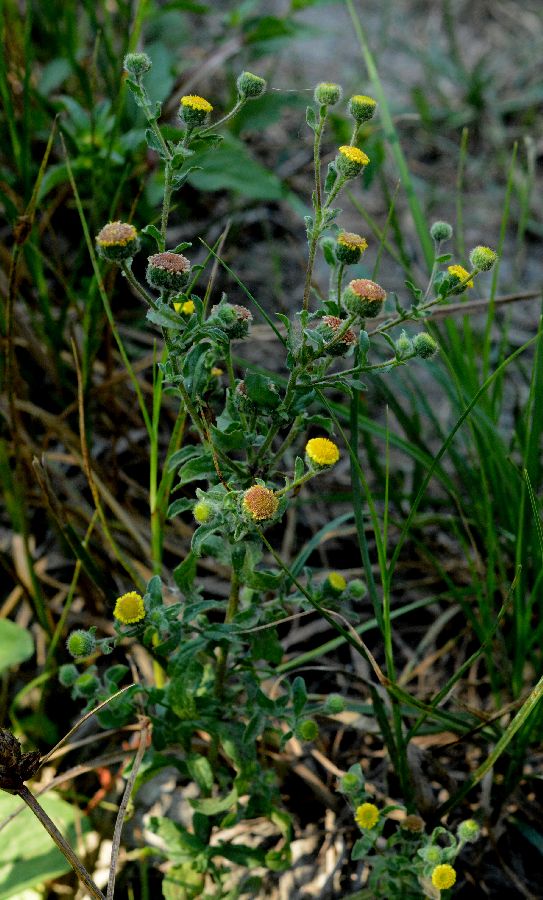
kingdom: Plantae
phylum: Tracheophyta
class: Magnoliopsida
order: Asterales
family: Asteraceae
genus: Pulicaria
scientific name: Pulicaria vulgaris
